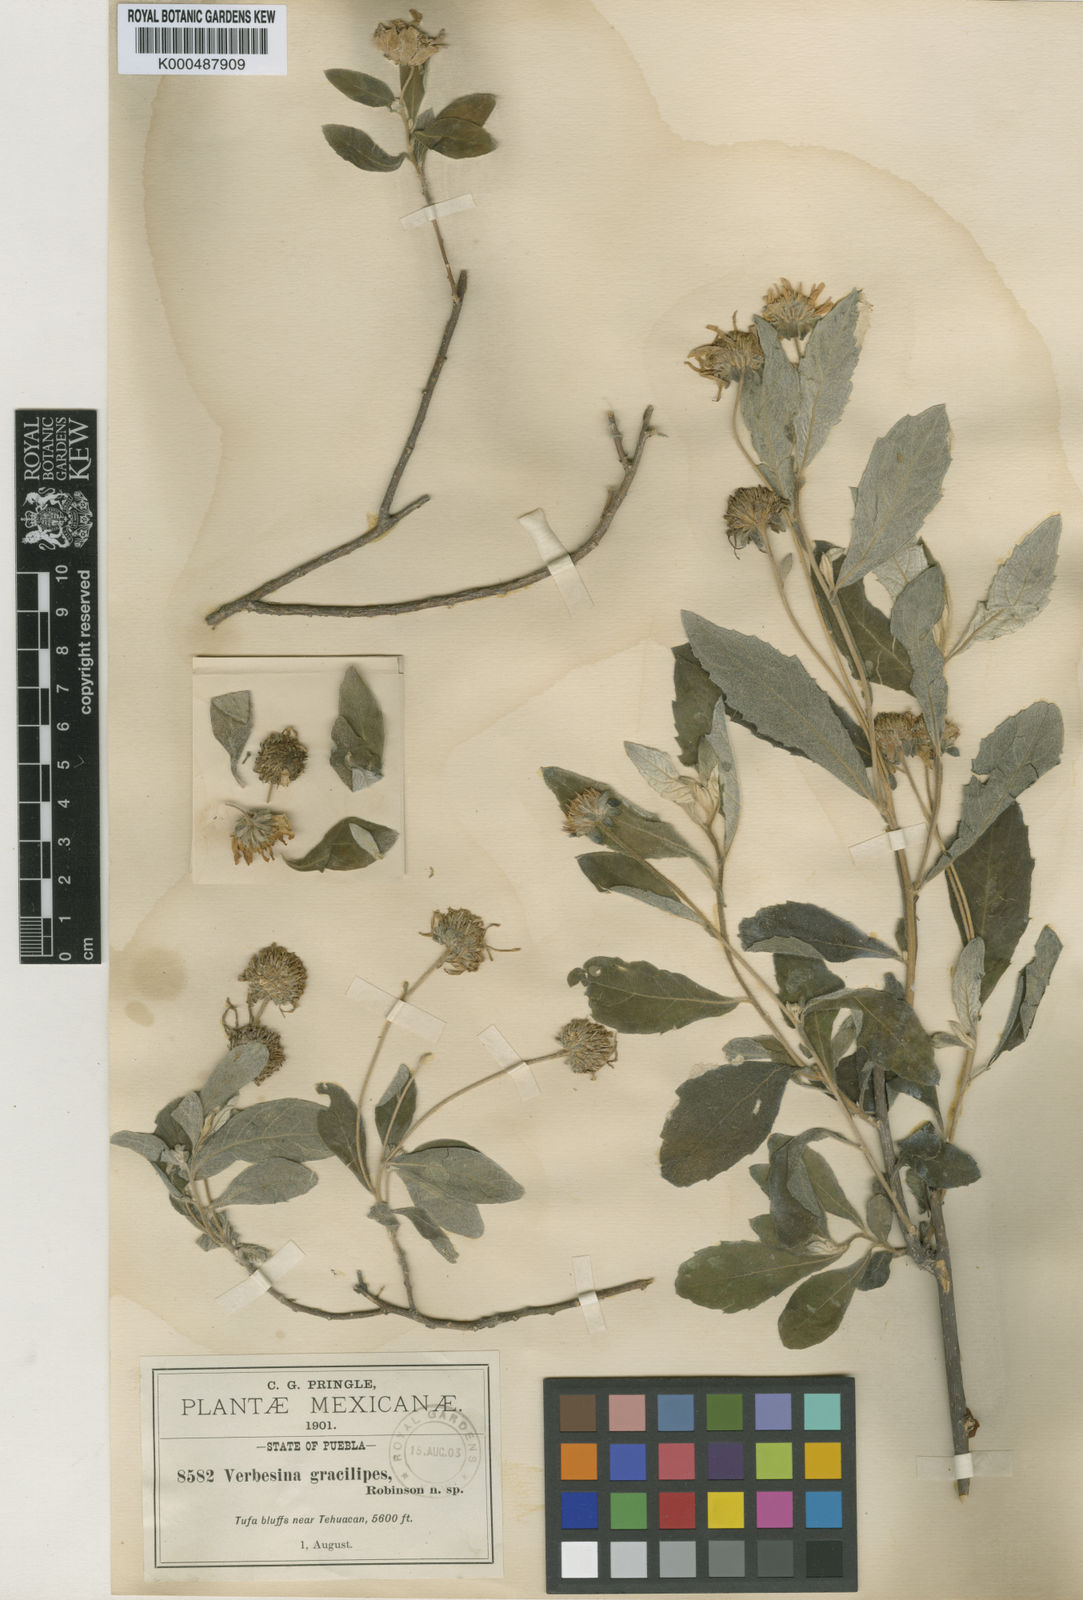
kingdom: Plantae
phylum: Tracheophyta
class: Magnoliopsida
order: Asterales
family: Asteraceae
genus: Verbesina
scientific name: Verbesina gracilipes
